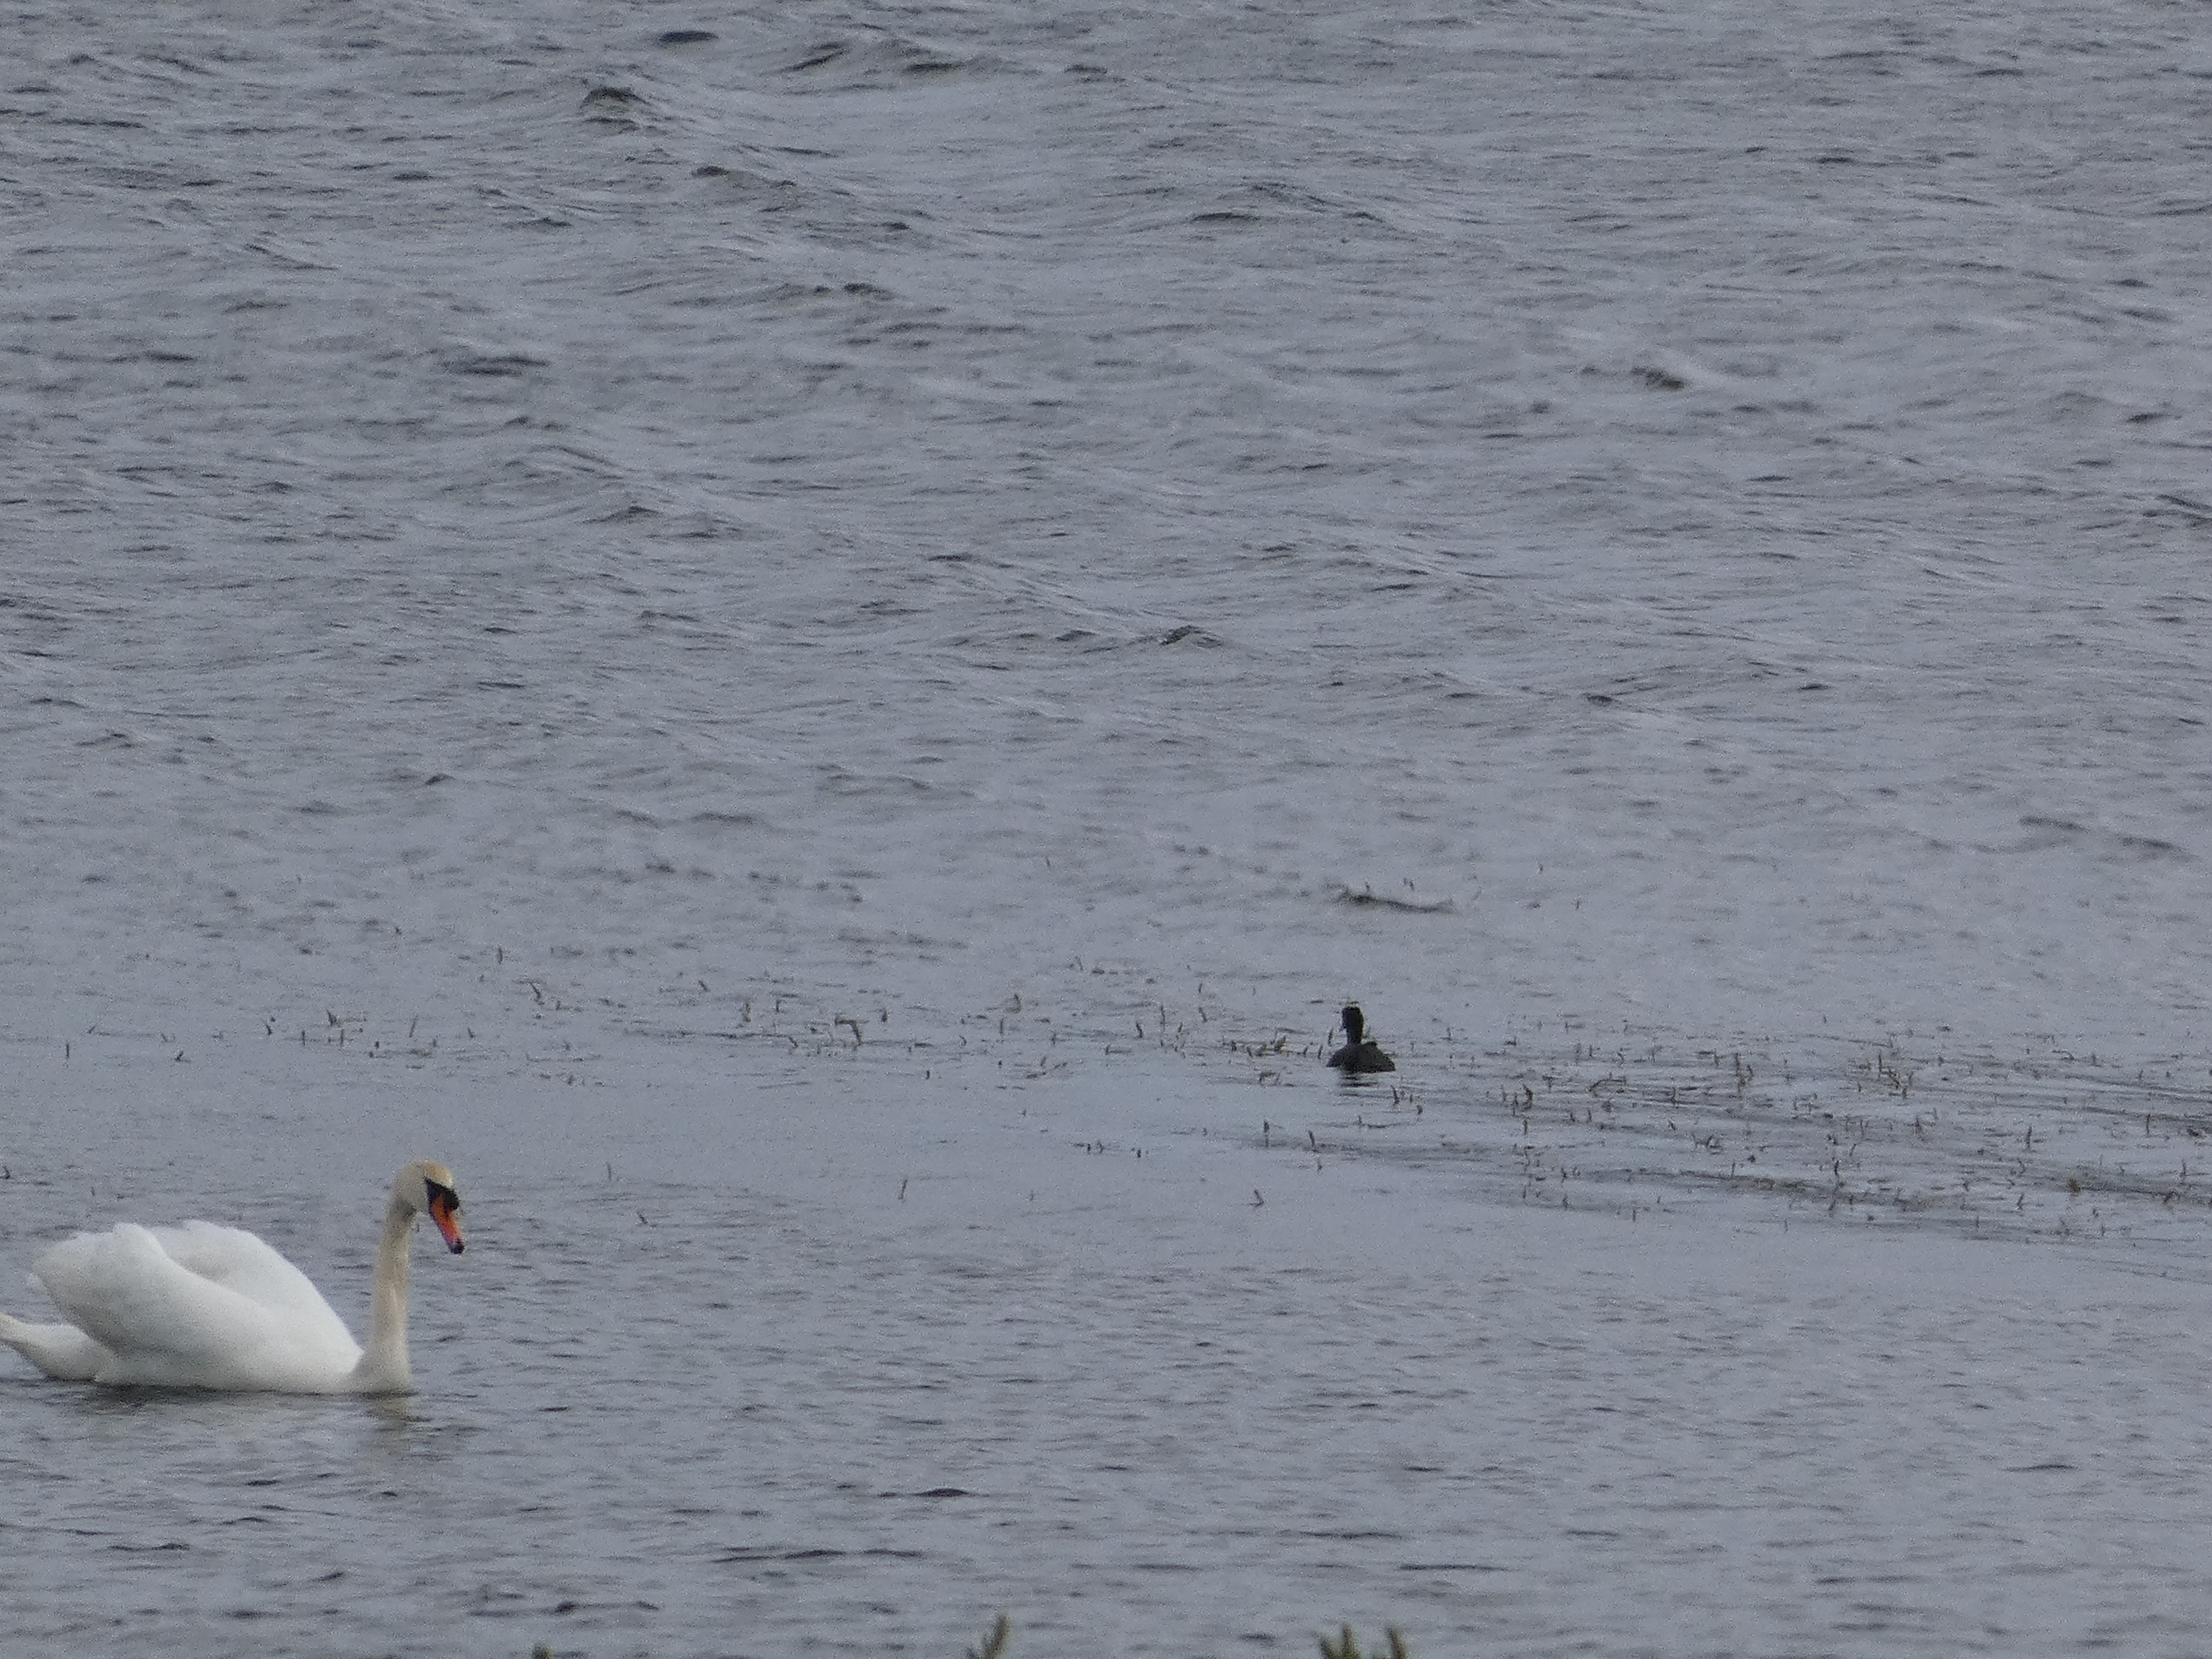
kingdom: Animalia
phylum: Chordata
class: Aves
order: Anseriformes
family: Anatidae
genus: Cygnus
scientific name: Cygnus olor
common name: Knopsvane
